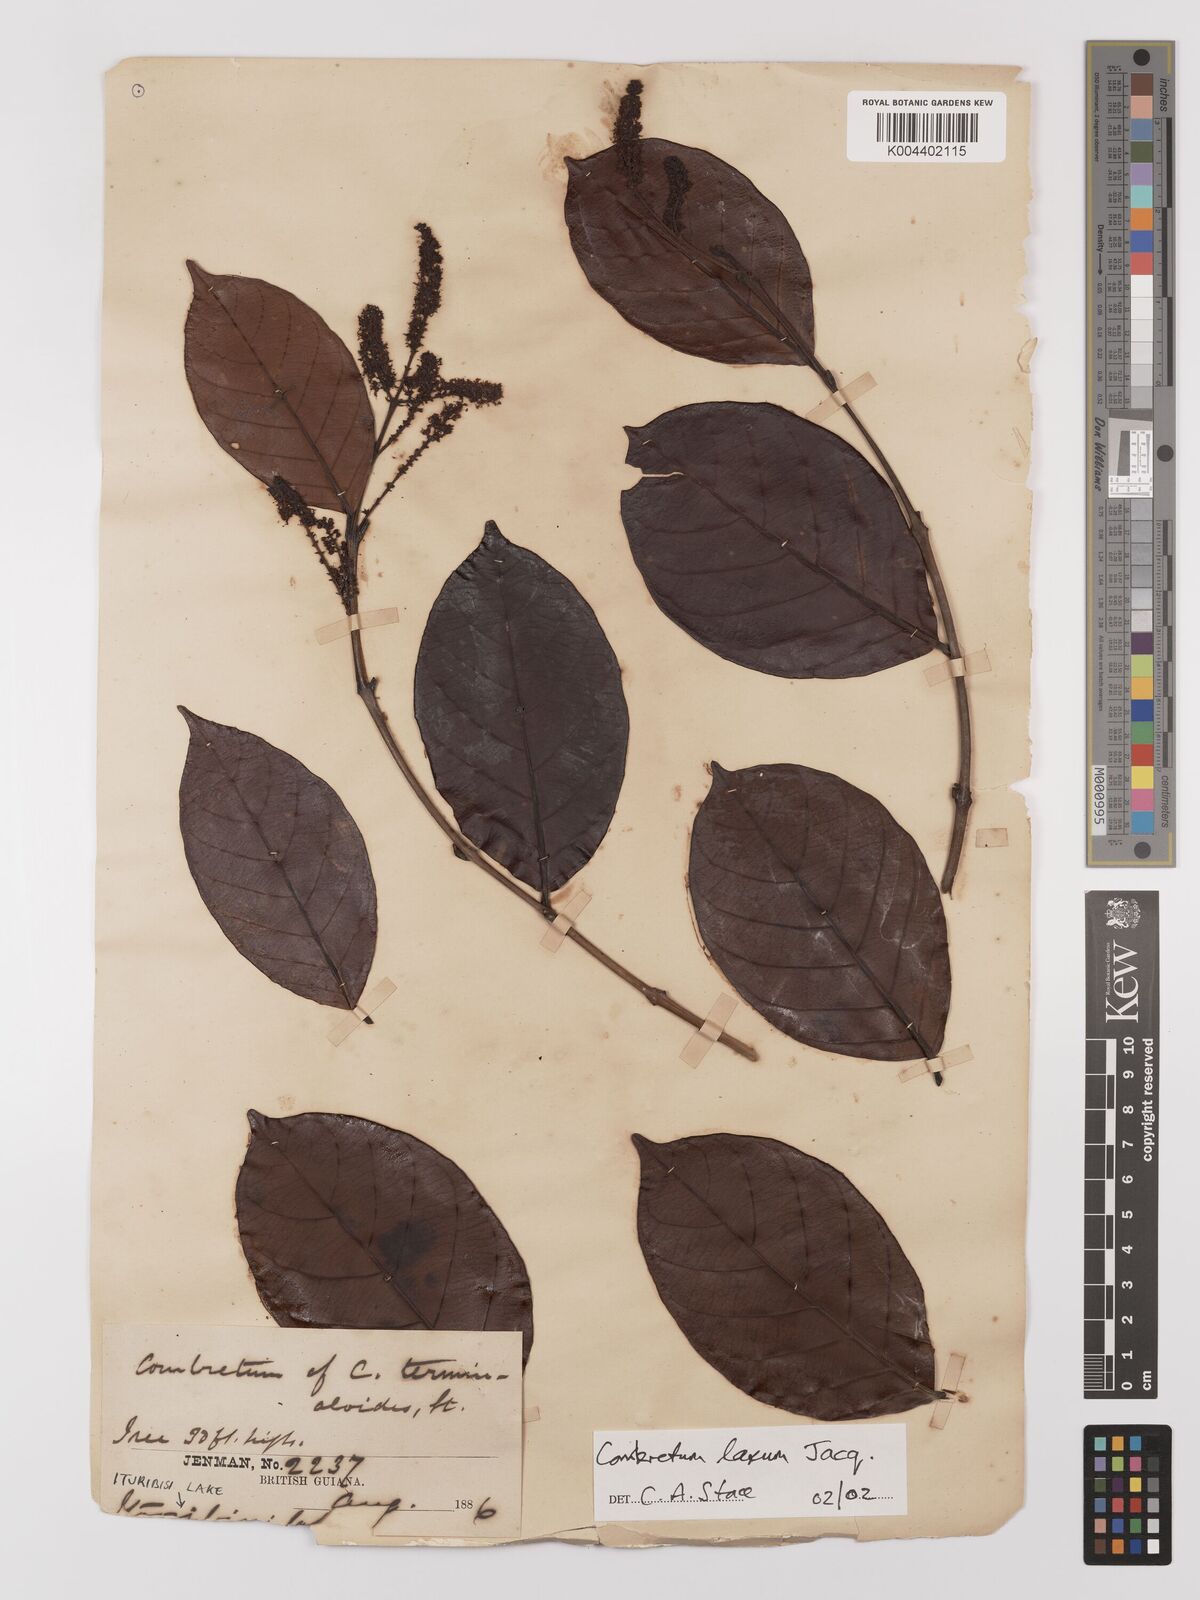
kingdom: Plantae
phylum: Tracheophyta
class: Magnoliopsida
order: Myrtales
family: Combretaceae
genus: Combretum
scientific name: Combretum albidum
